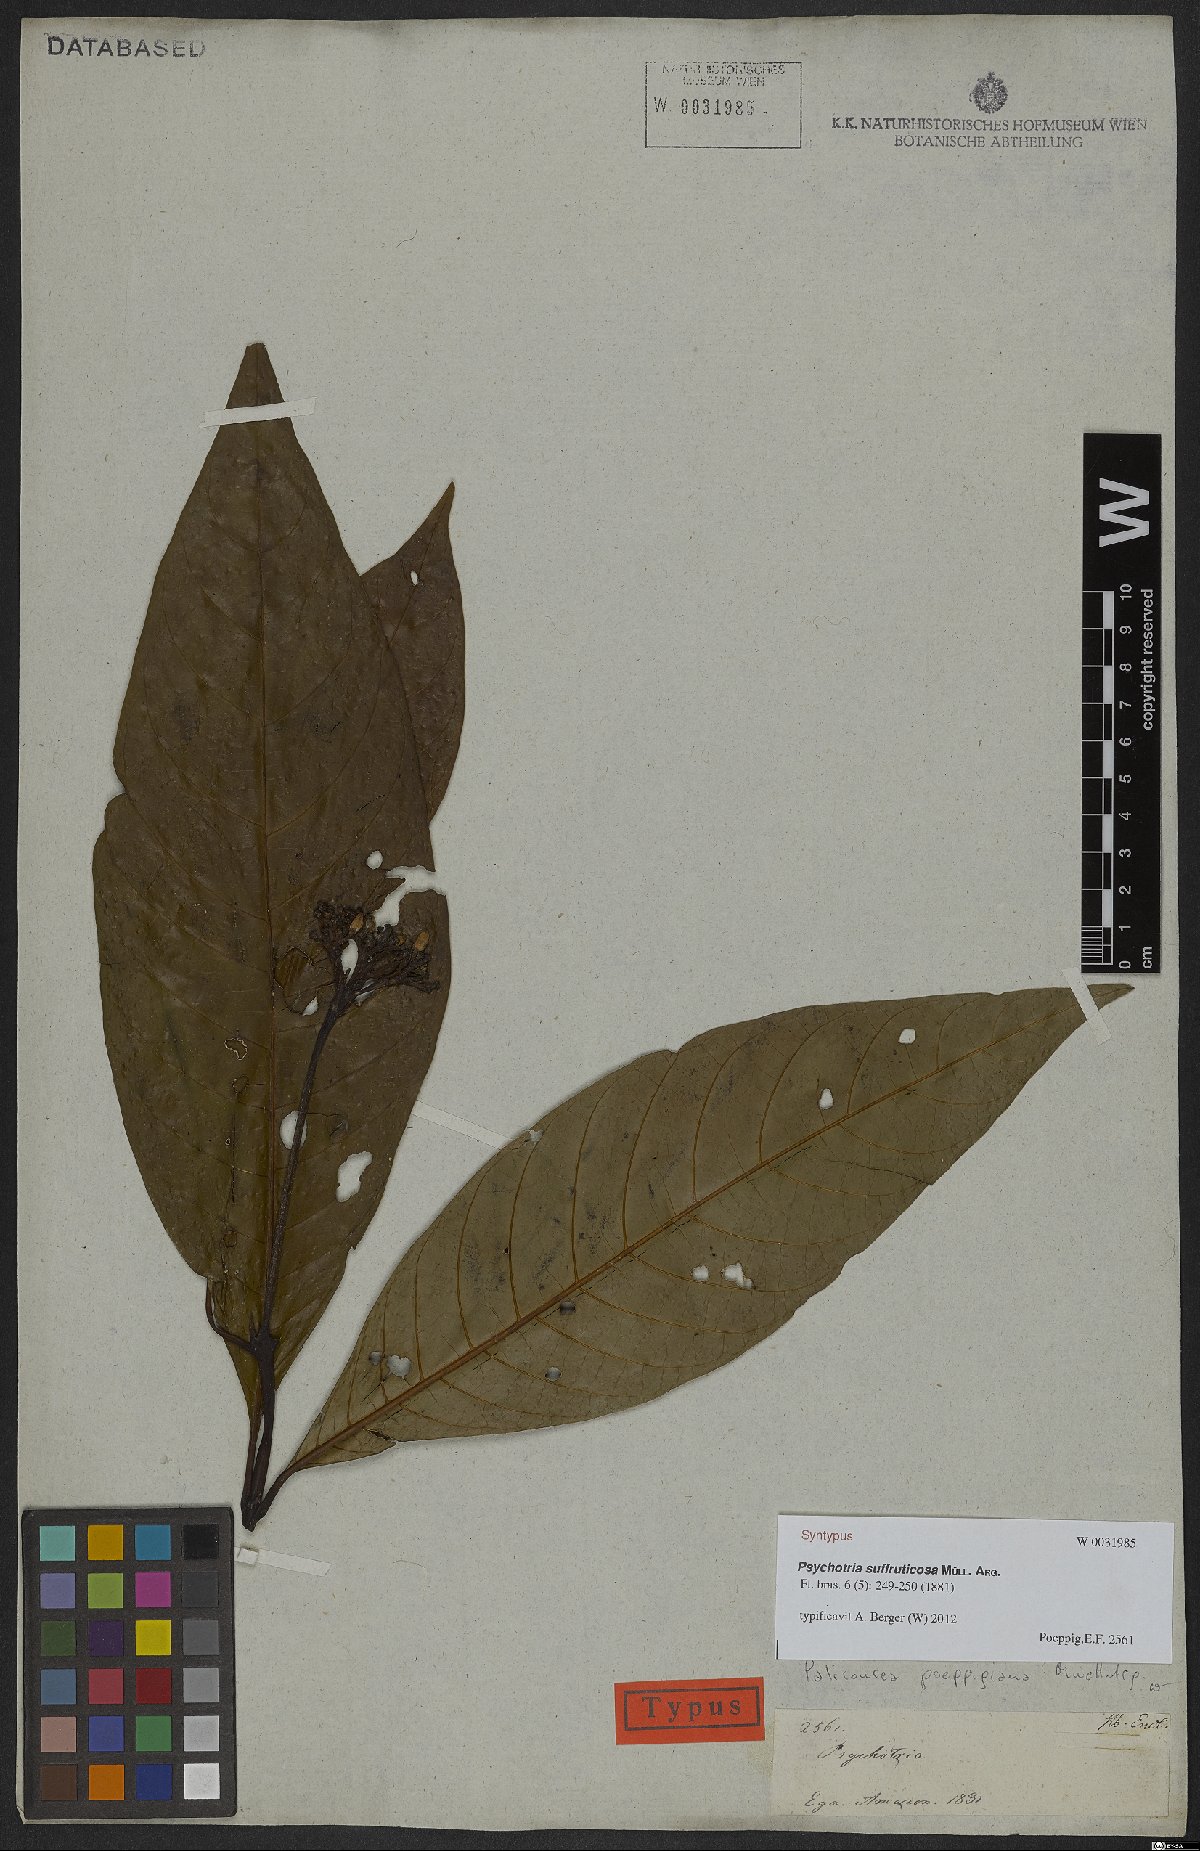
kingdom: Plantae
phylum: Tracheophyta
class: Magnoliopsida
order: Gentianales
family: Rubiaceae
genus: Psychotria
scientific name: Psychotria suffruticosa
